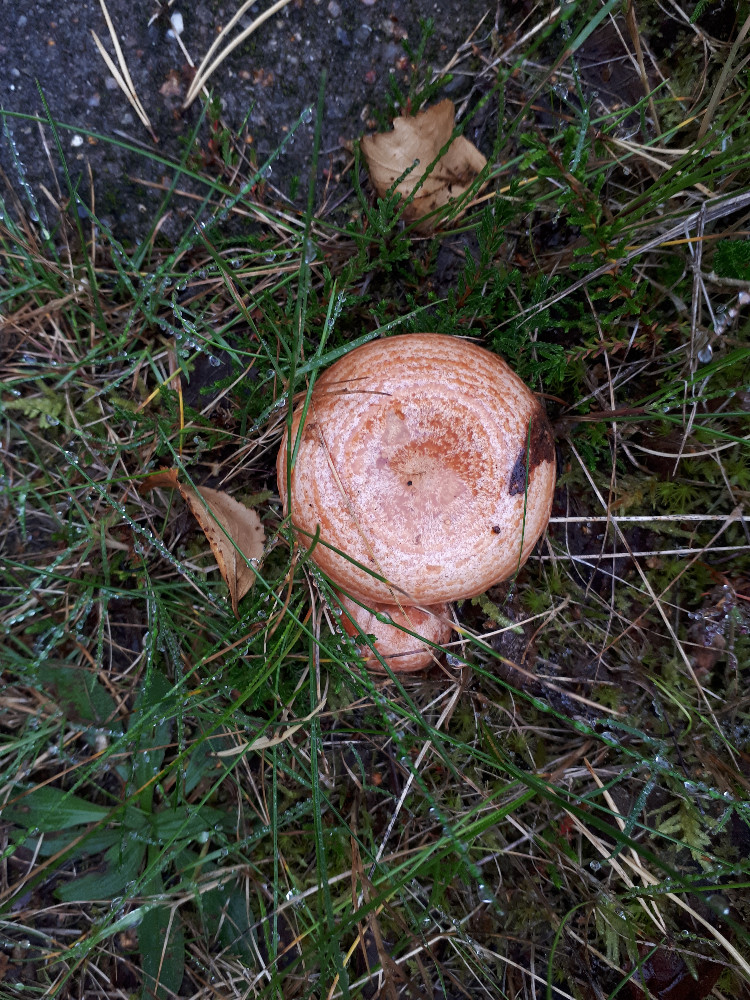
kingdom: Fungi
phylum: Basidiomycota
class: Agaricomycetes
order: Russulales
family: Russulaceae
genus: Lactarius
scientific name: Lactarius deliciosus
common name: velsmagende mælkehat
